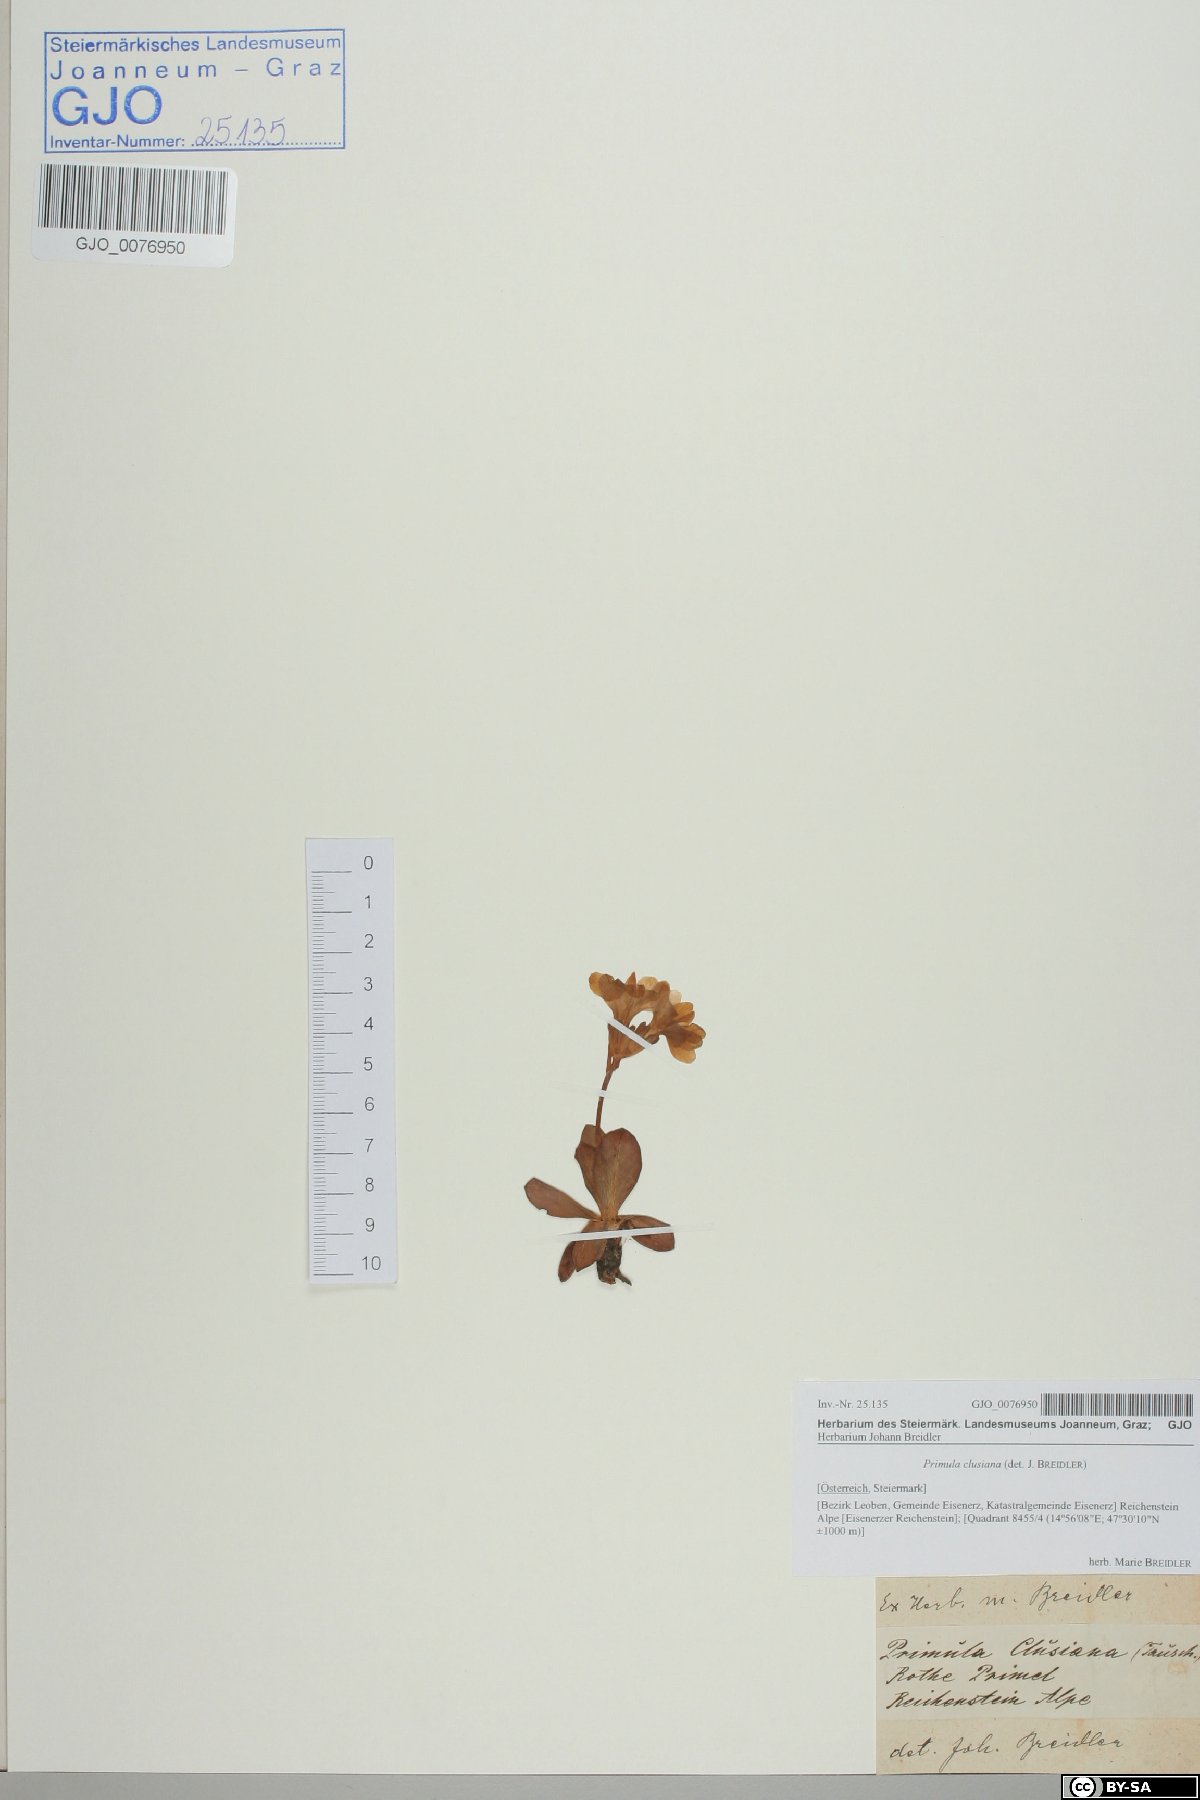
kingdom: Plantae
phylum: Tracheophyta
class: Magnoliopsida
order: Ericales
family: Primulaceae
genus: Primula
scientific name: Primula clusiana
